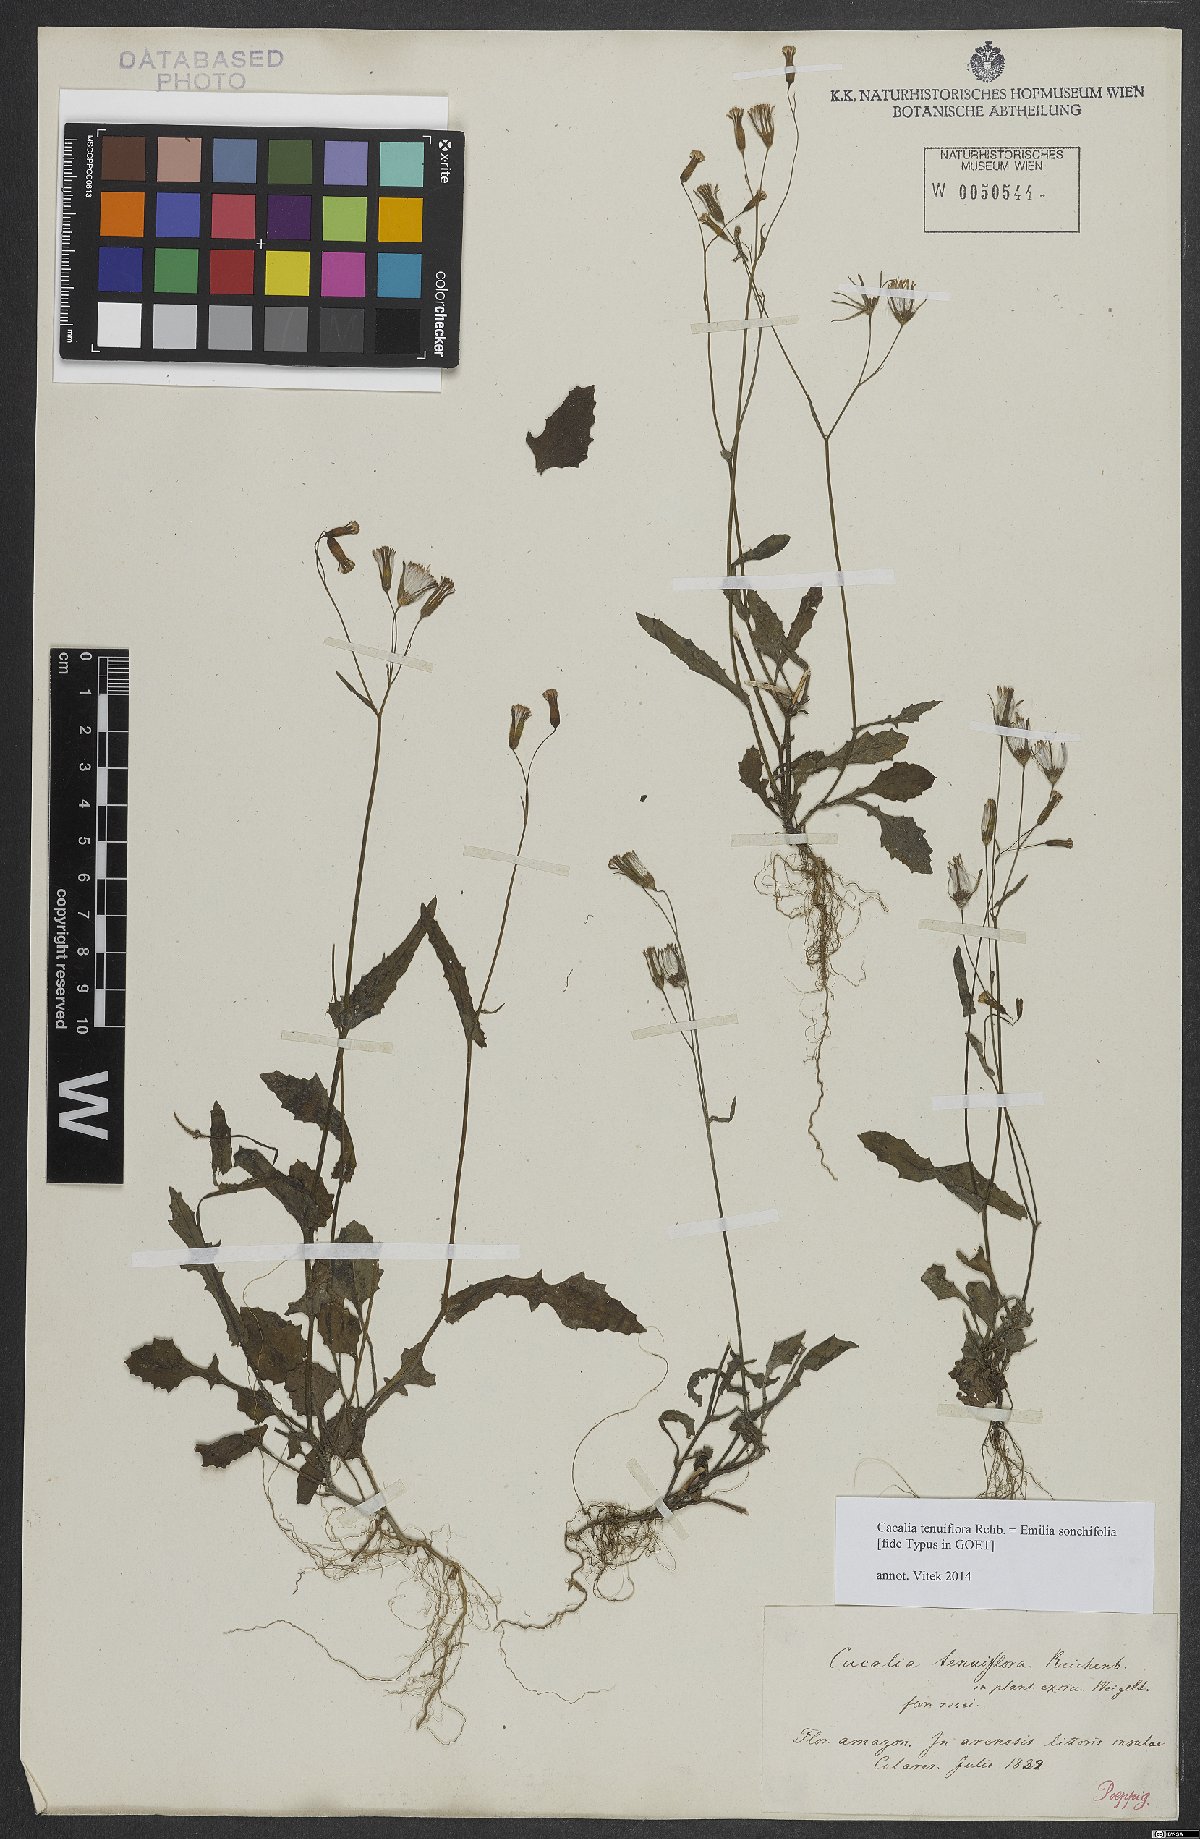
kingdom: Plantae
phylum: Tracheophyta
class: Magnoliopsida
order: Asterales
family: Asteraceae
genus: Emilia
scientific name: Emilia sonchifolia
